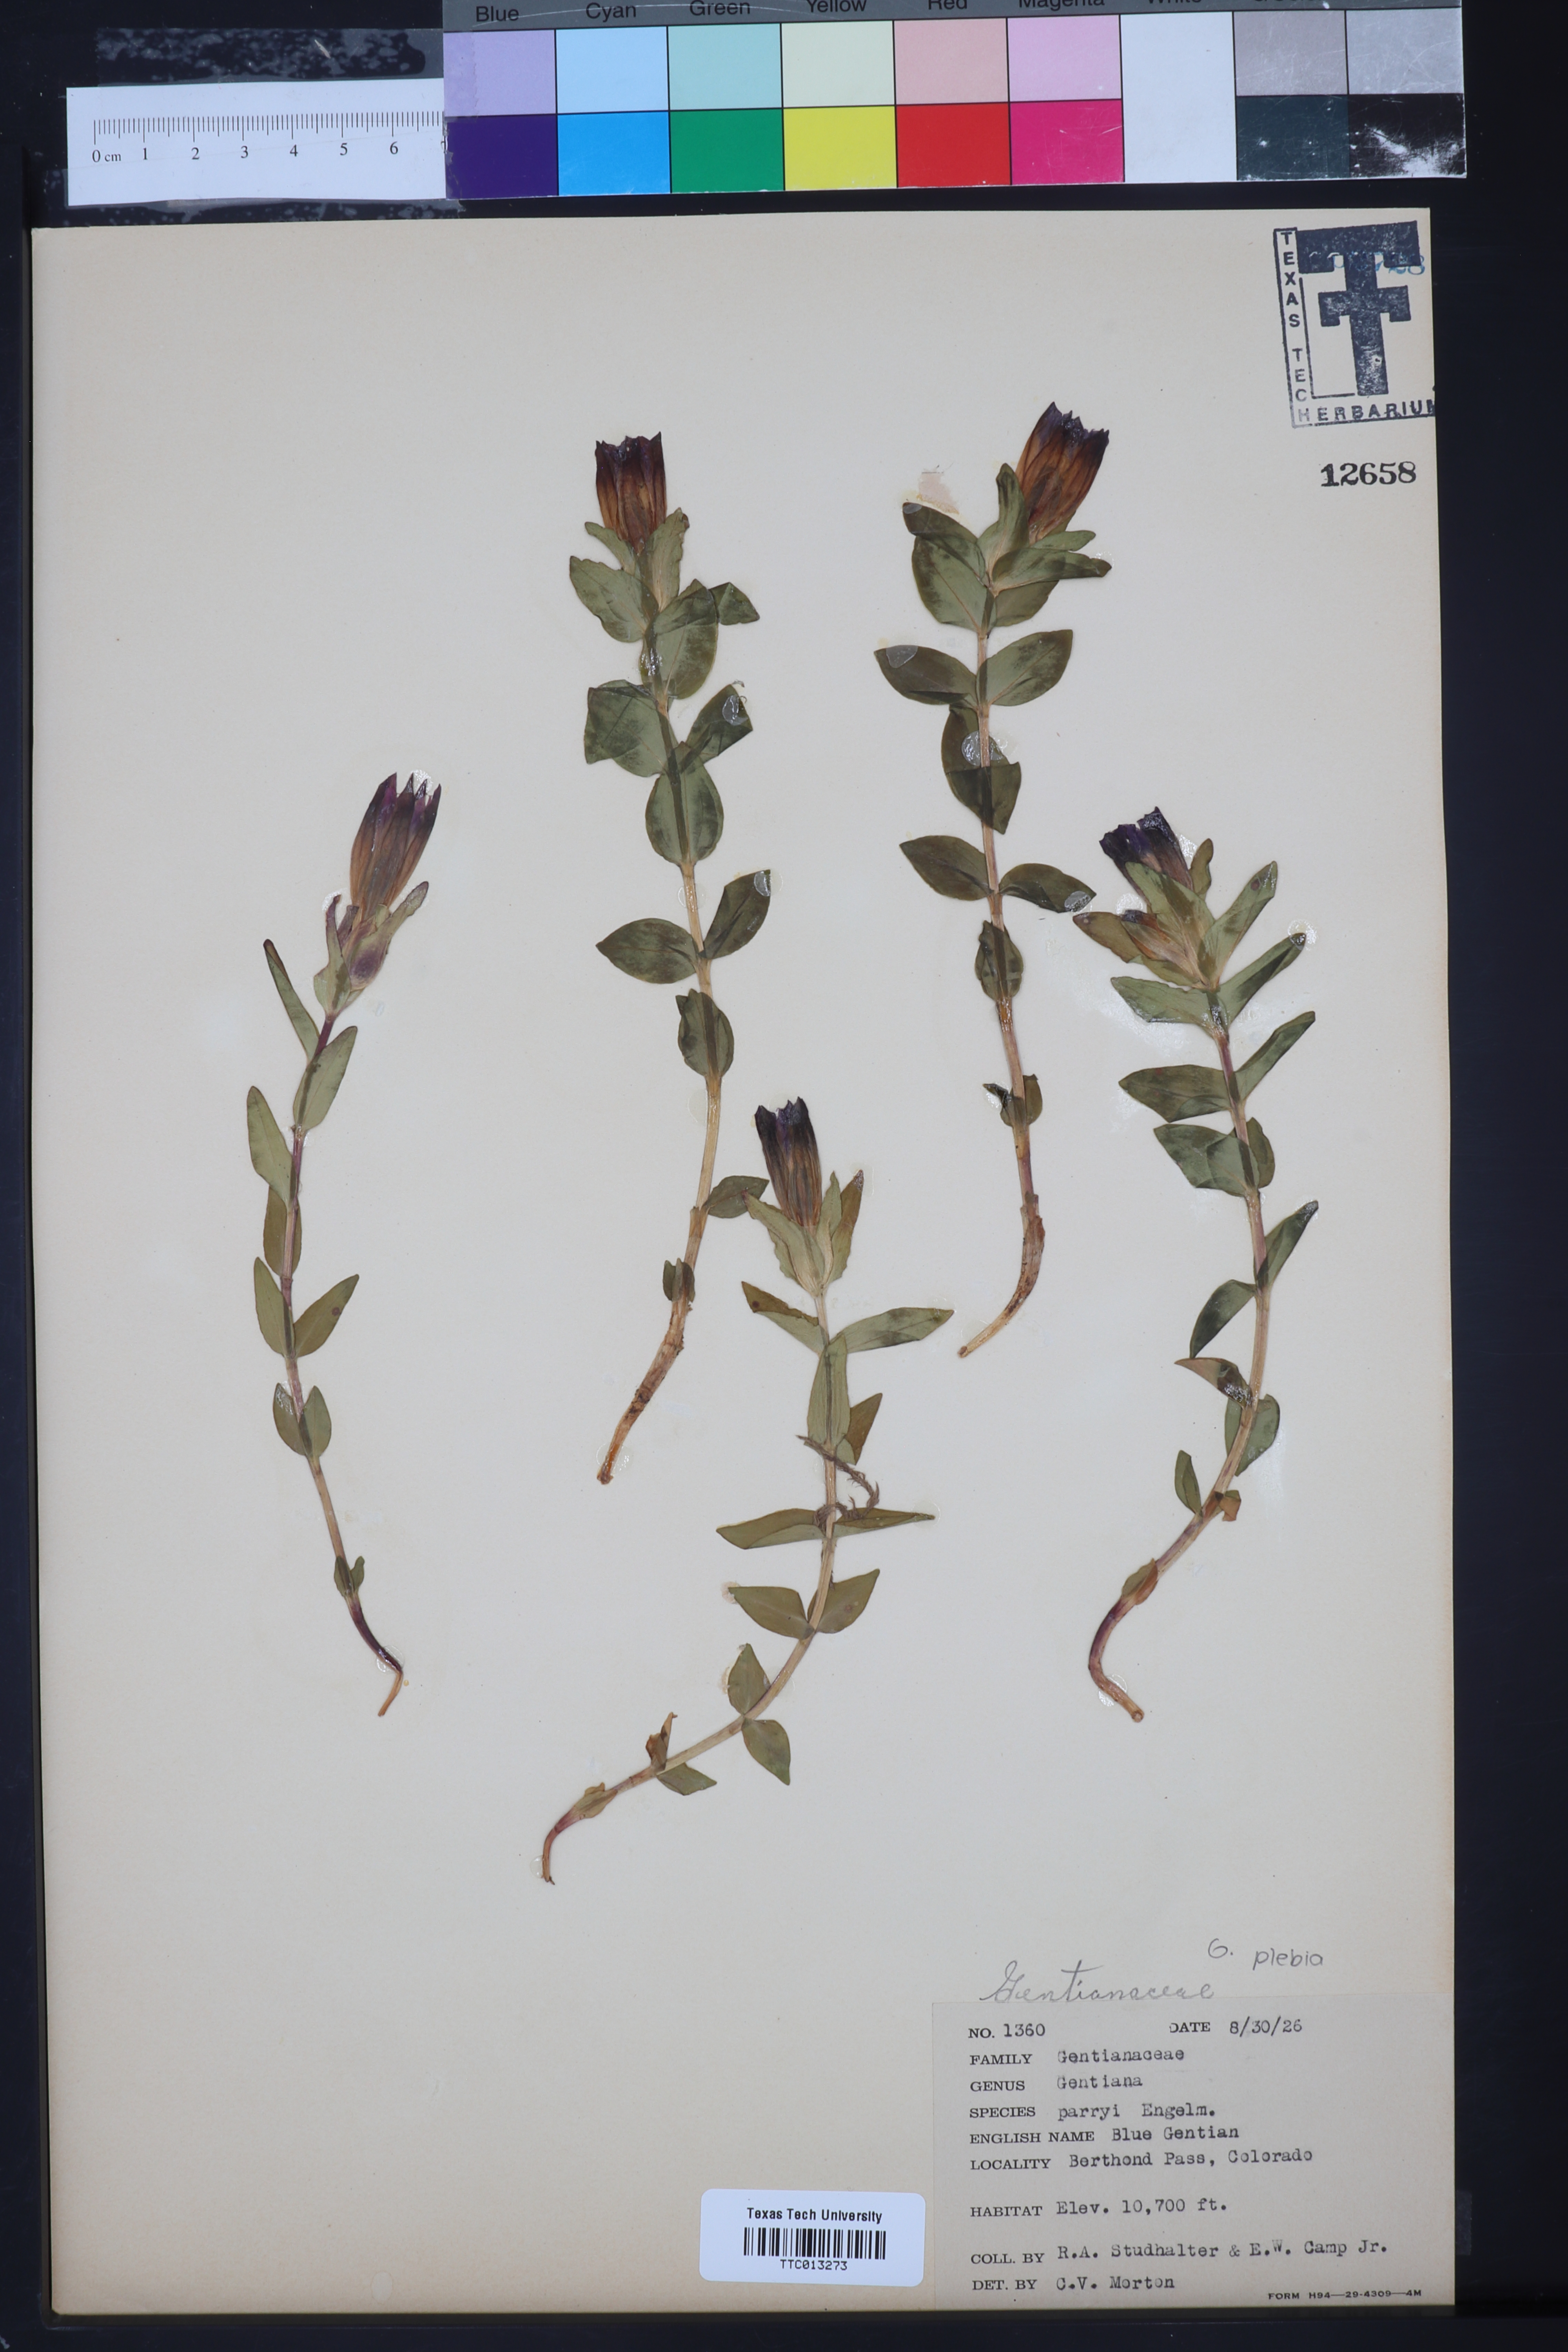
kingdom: Plantae
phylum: Tracheophyta
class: Magnoliopsida
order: Gentianales
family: Gentianaceae
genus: Gentiana
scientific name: Gentiana parryi
